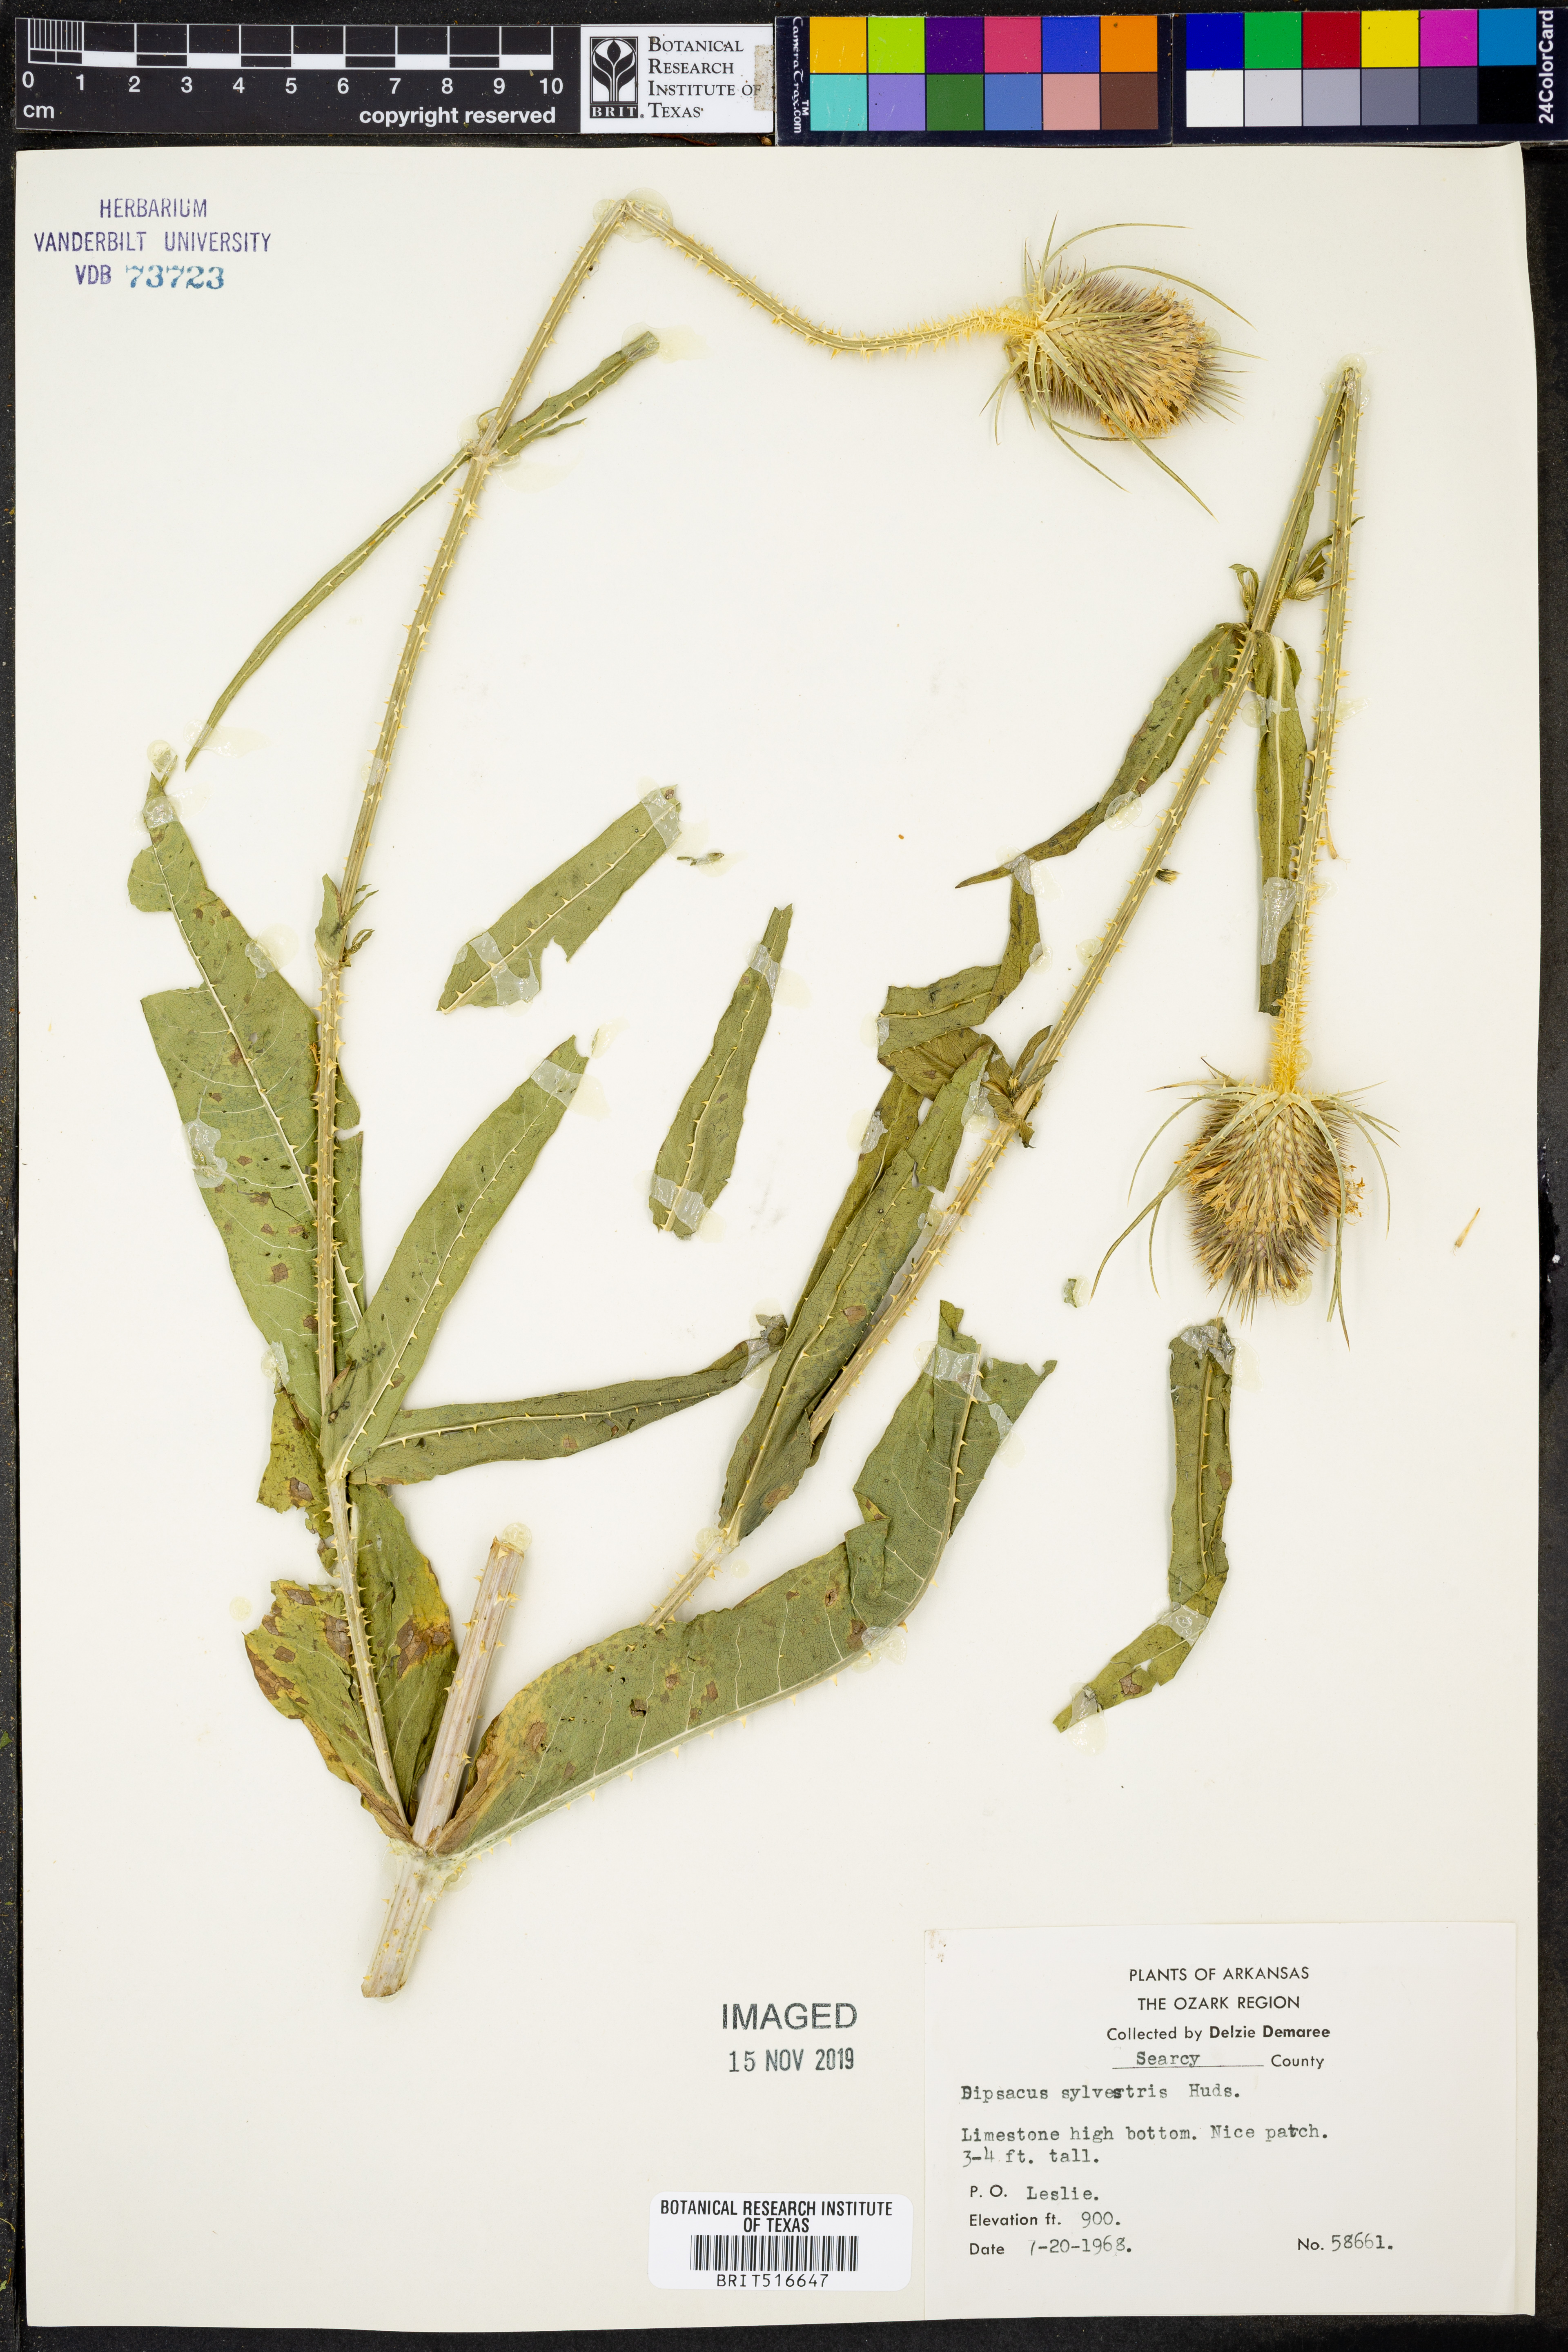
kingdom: Plantae
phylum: Tracheophyta
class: Magnoliopsida
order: Dipsacales
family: Caprifoliaceae
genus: Dipsacus
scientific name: Dipsacus fullonum
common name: Teasel
